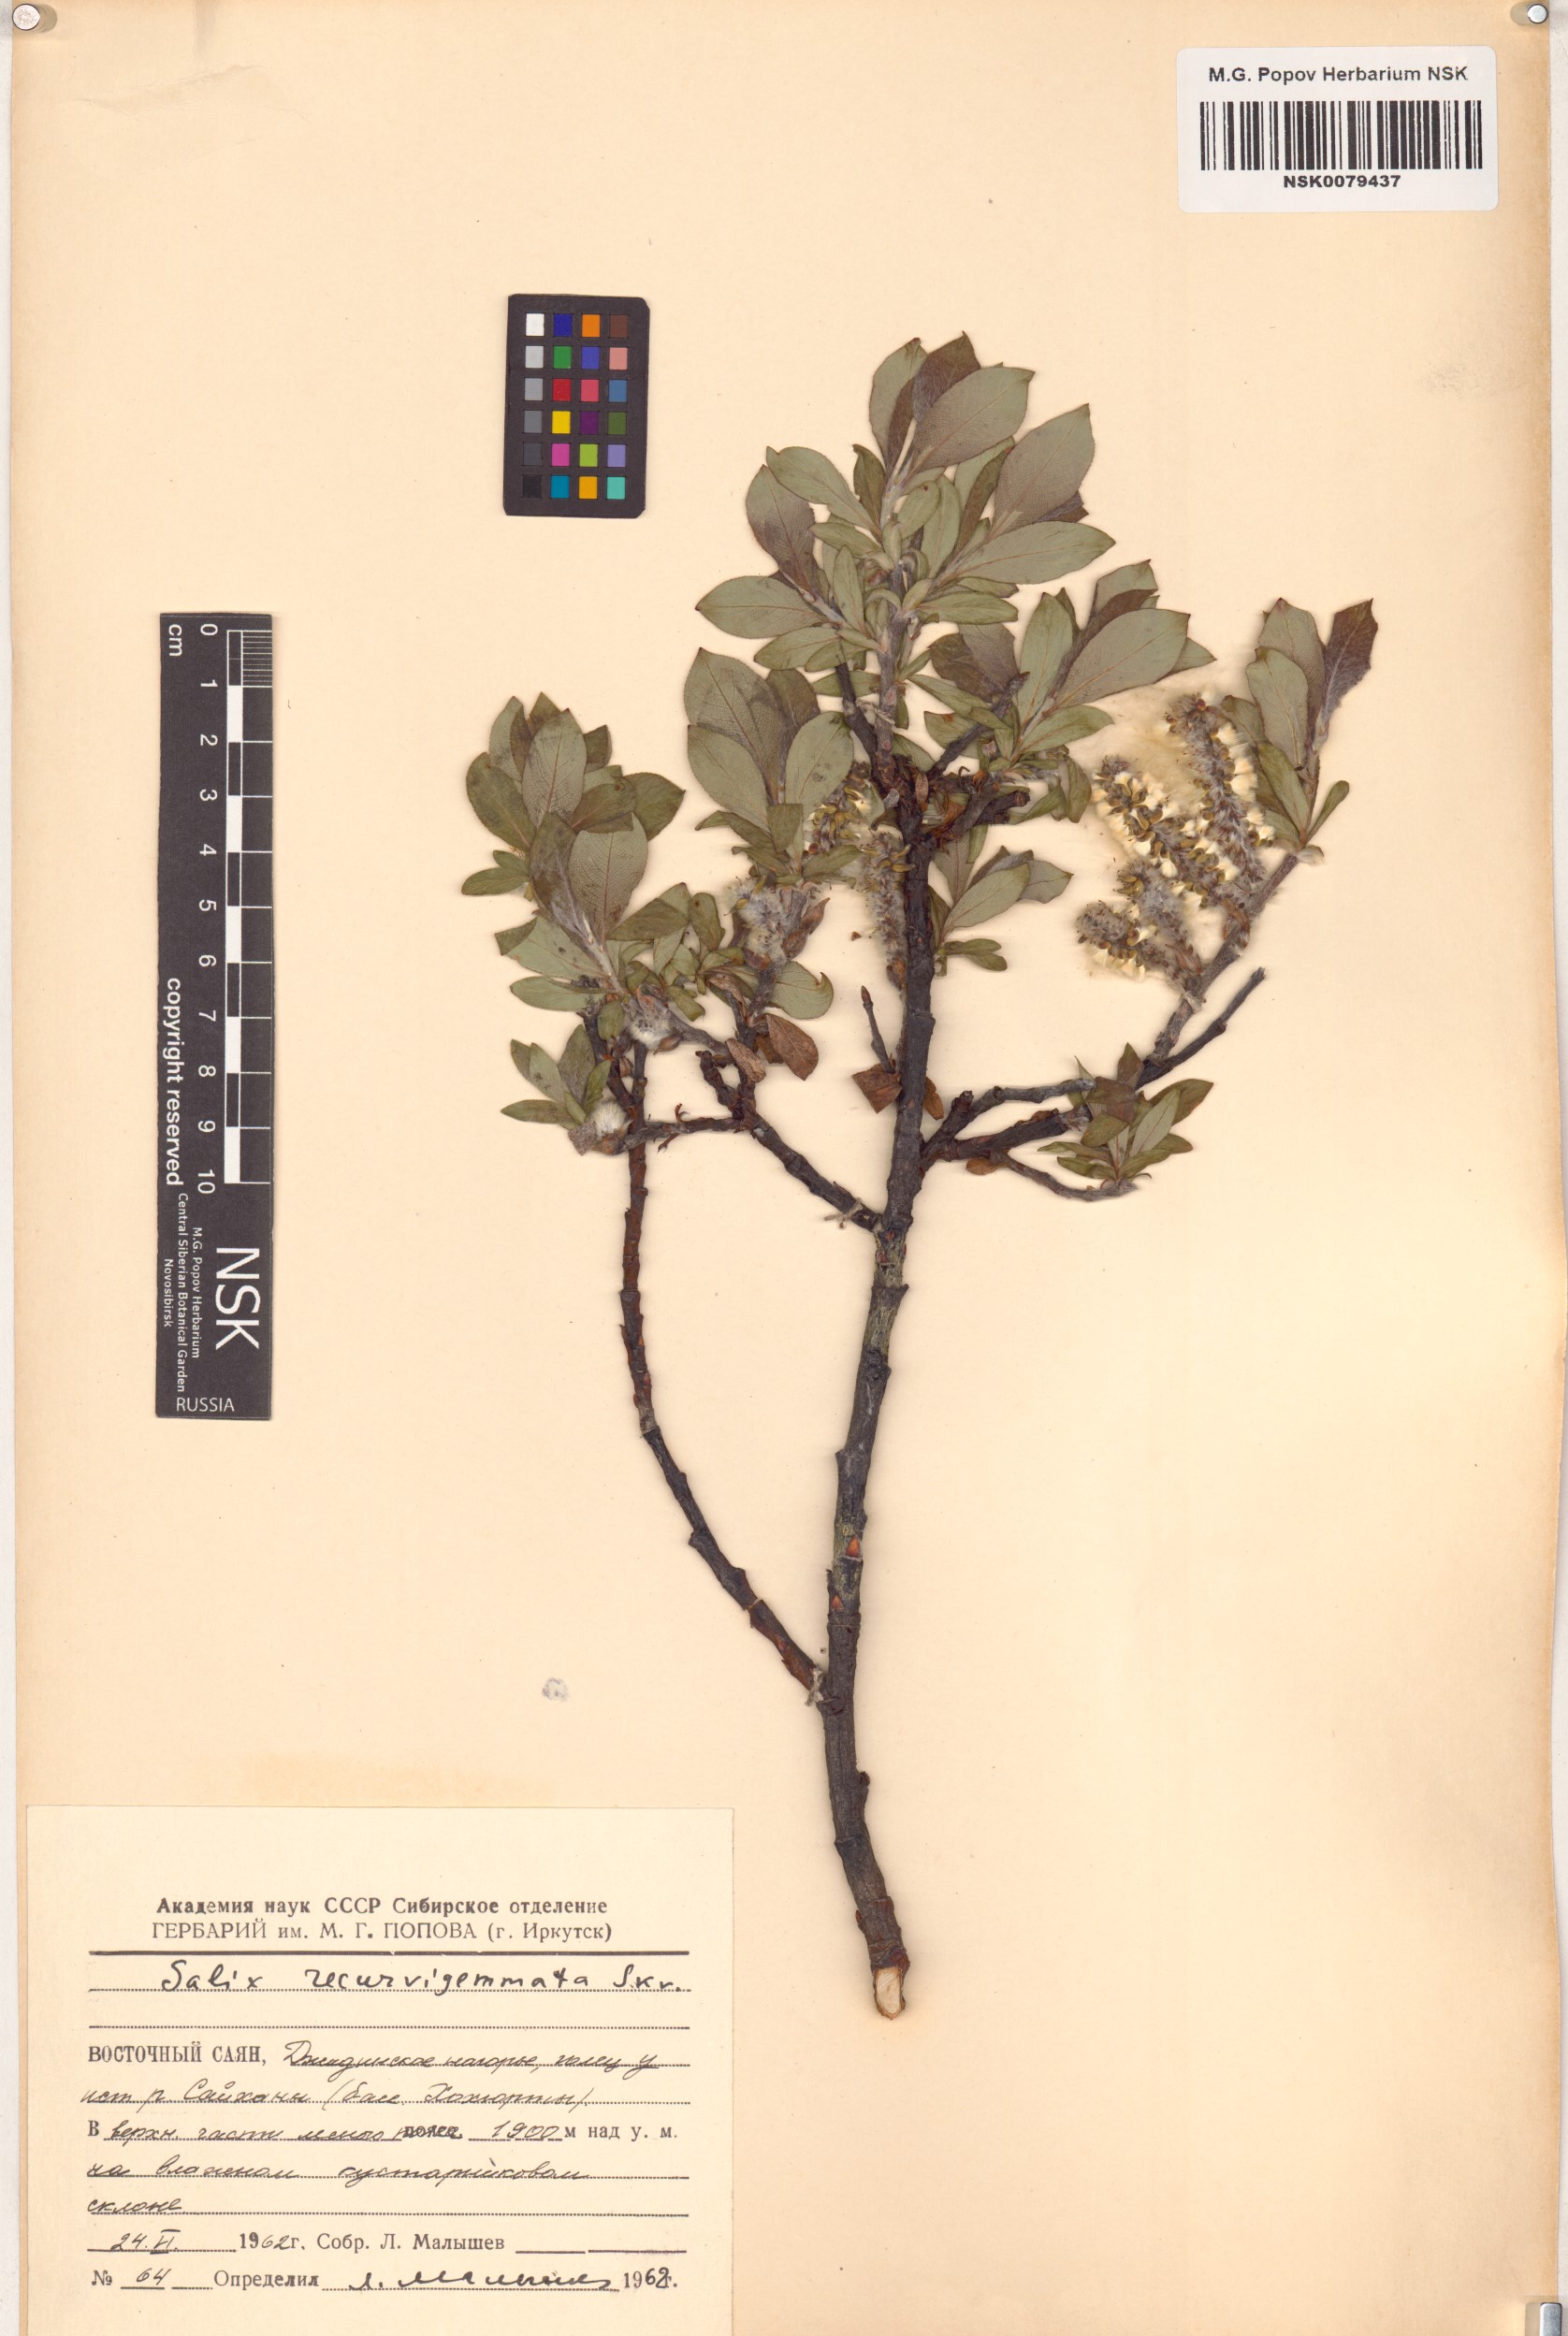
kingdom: Plantae
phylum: Tracheophyta
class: Magnoliopsida
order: Malpighiales
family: Salicaceae
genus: Salix
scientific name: Salix recurvigemmata
